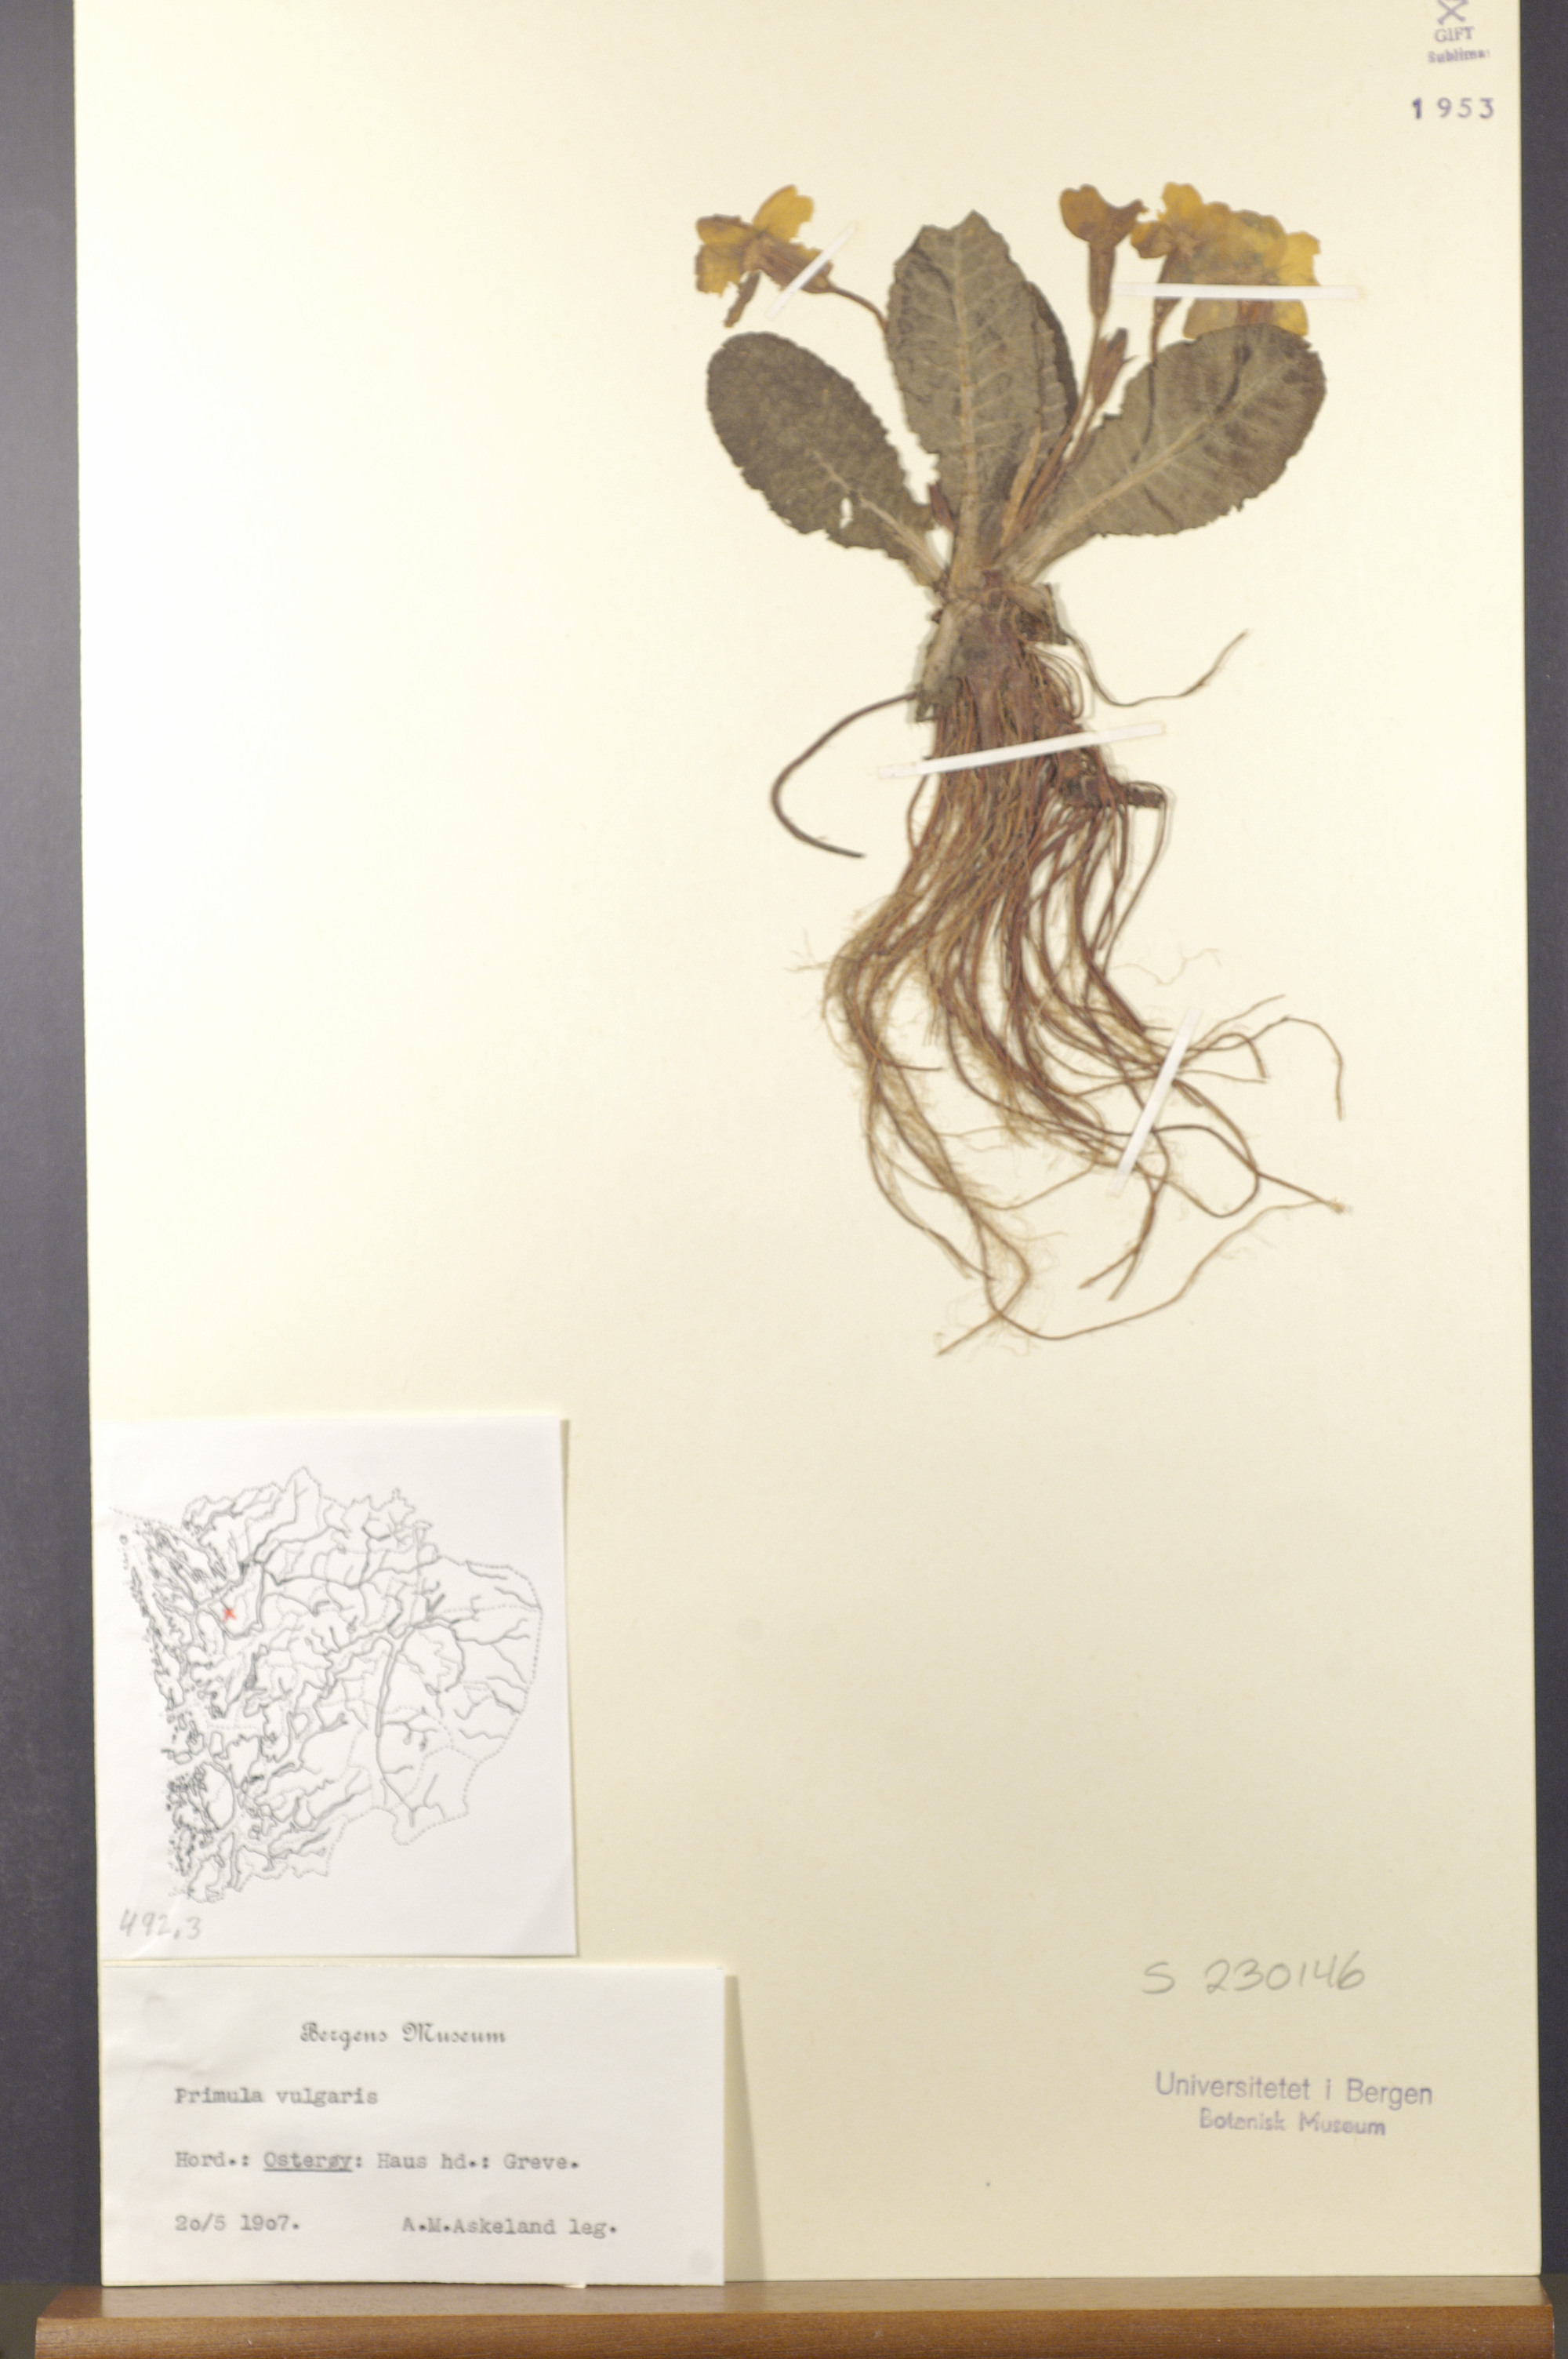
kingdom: Plantae
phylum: Tracheophyta
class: Magnoliopsida
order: Ericales
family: Primulaceae
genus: Primula
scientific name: Primula vulgaris
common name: Primrose
